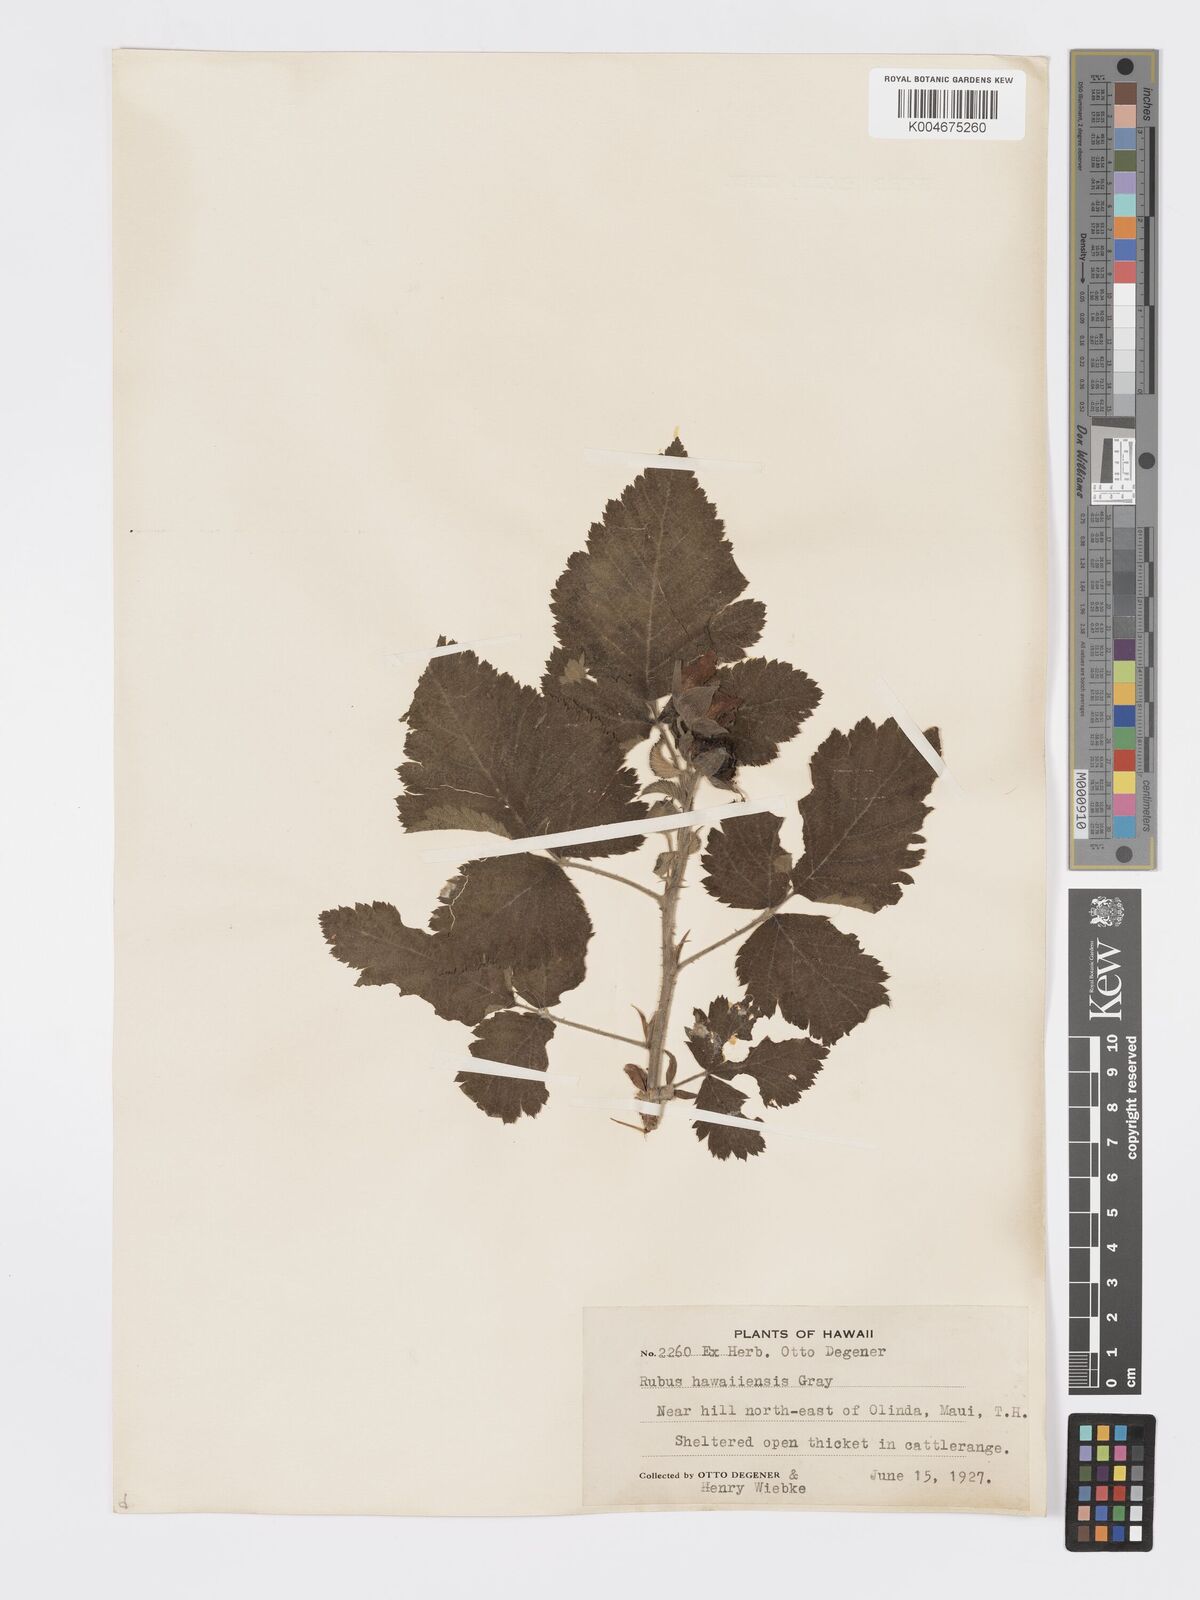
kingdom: Plantae
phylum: Tracheophyta
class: Magnoliopsida
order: Rosales
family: Rosaceae
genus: Rubus
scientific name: Rubus hawaiensis
